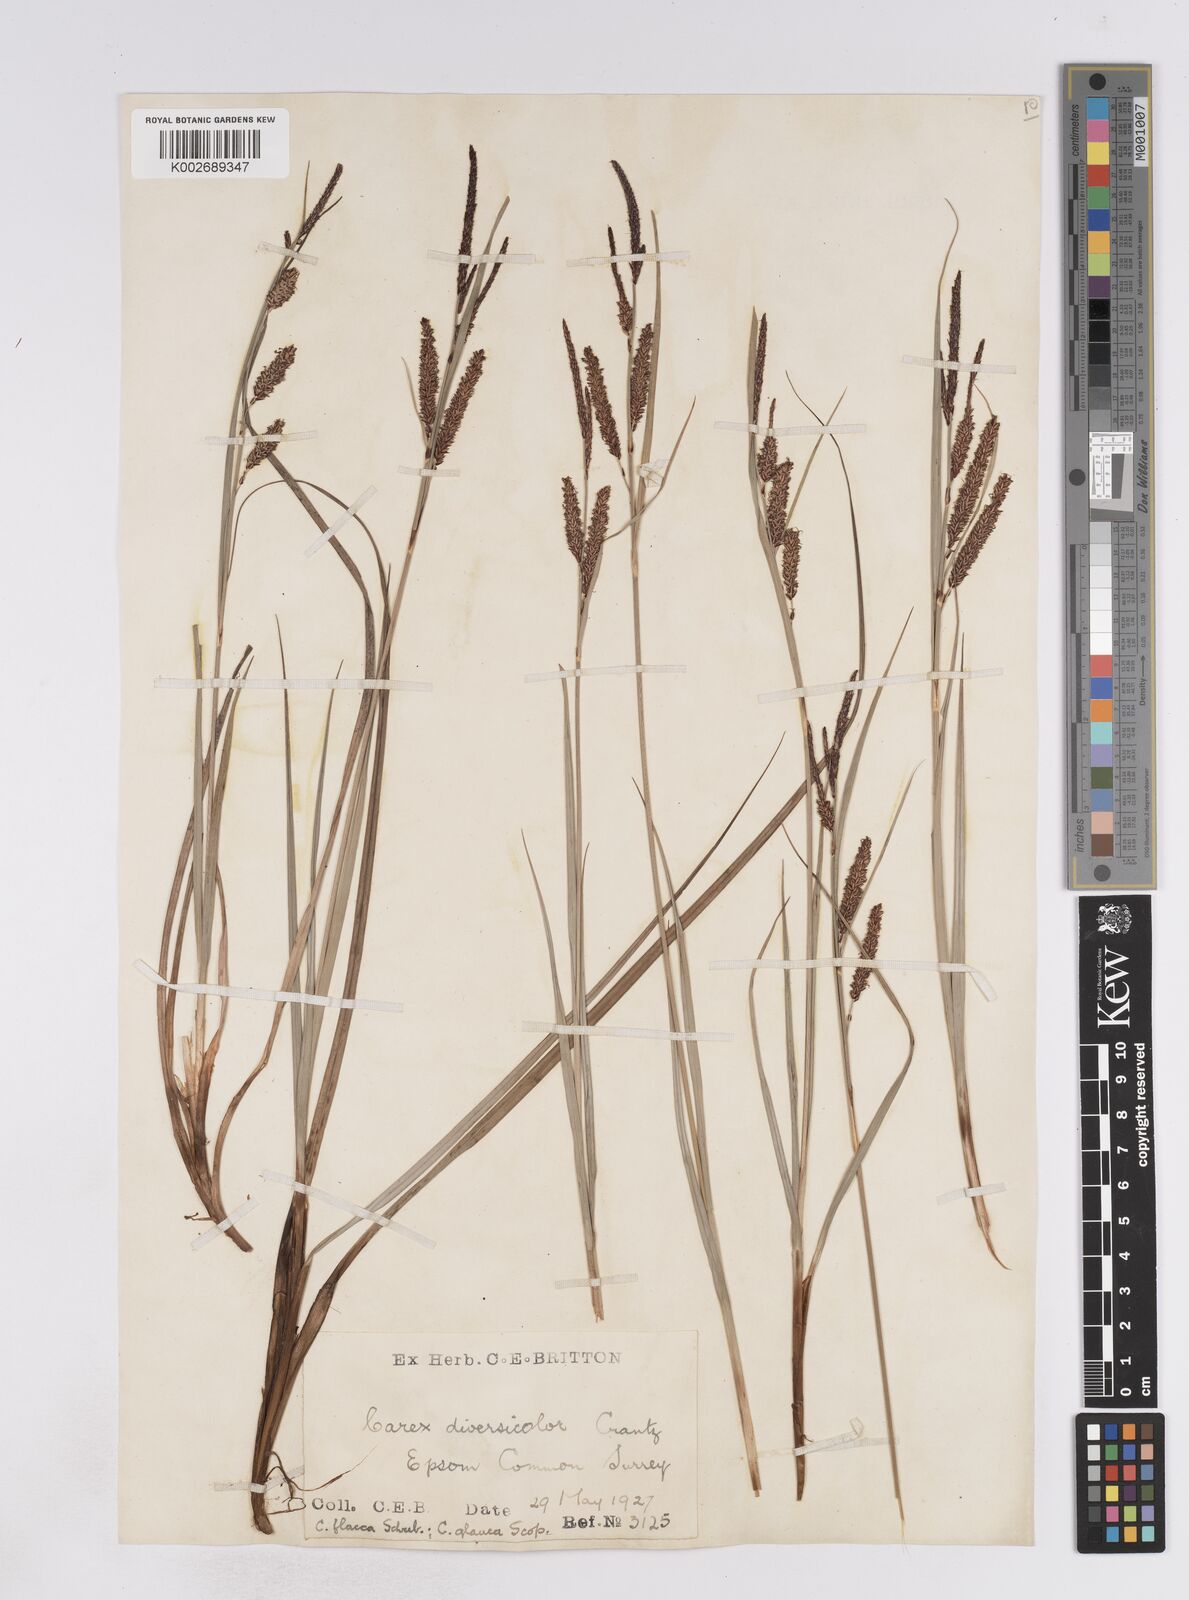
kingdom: Plantae
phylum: Tracheophyta
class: Liliopsida
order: Poales
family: Cyperaceae
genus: Carex
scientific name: Carex flacca
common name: Glaucous sedge
